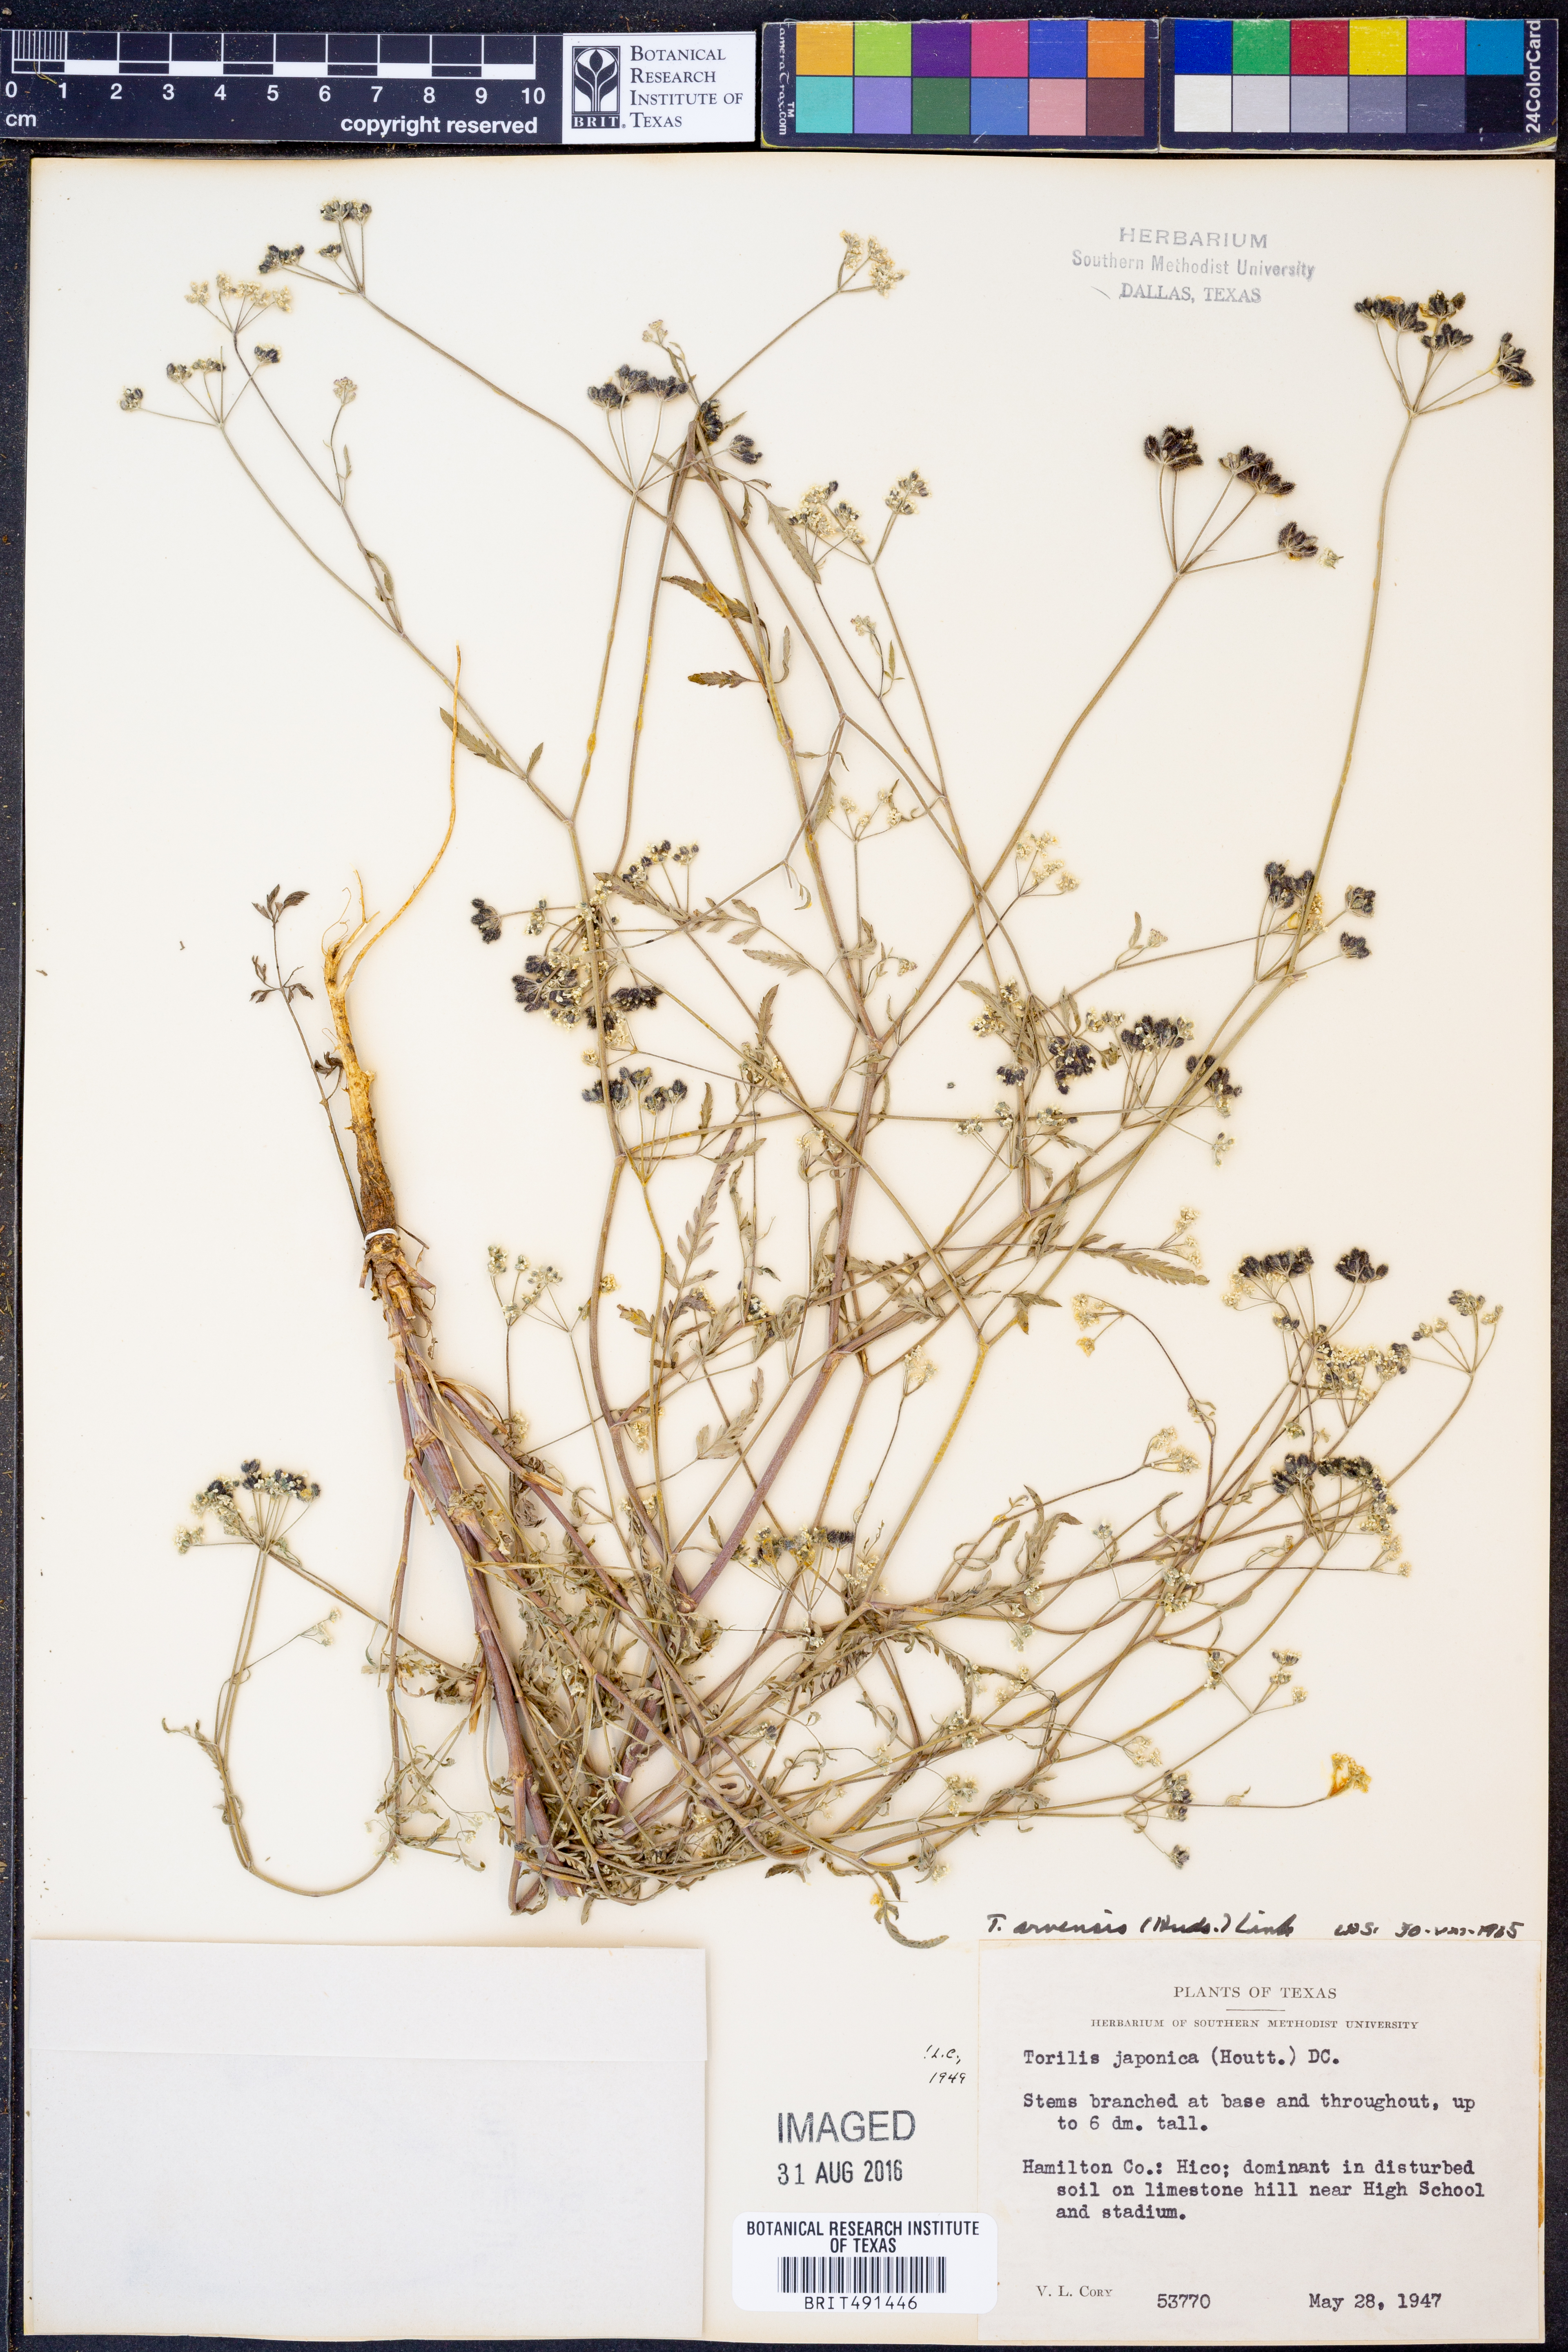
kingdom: Plantae
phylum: Tracheophyta
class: Magnoliopsida
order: Apiales
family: Apiaceae
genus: Torilis
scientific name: Torilis arvensis
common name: Spreading hedge-parsley
